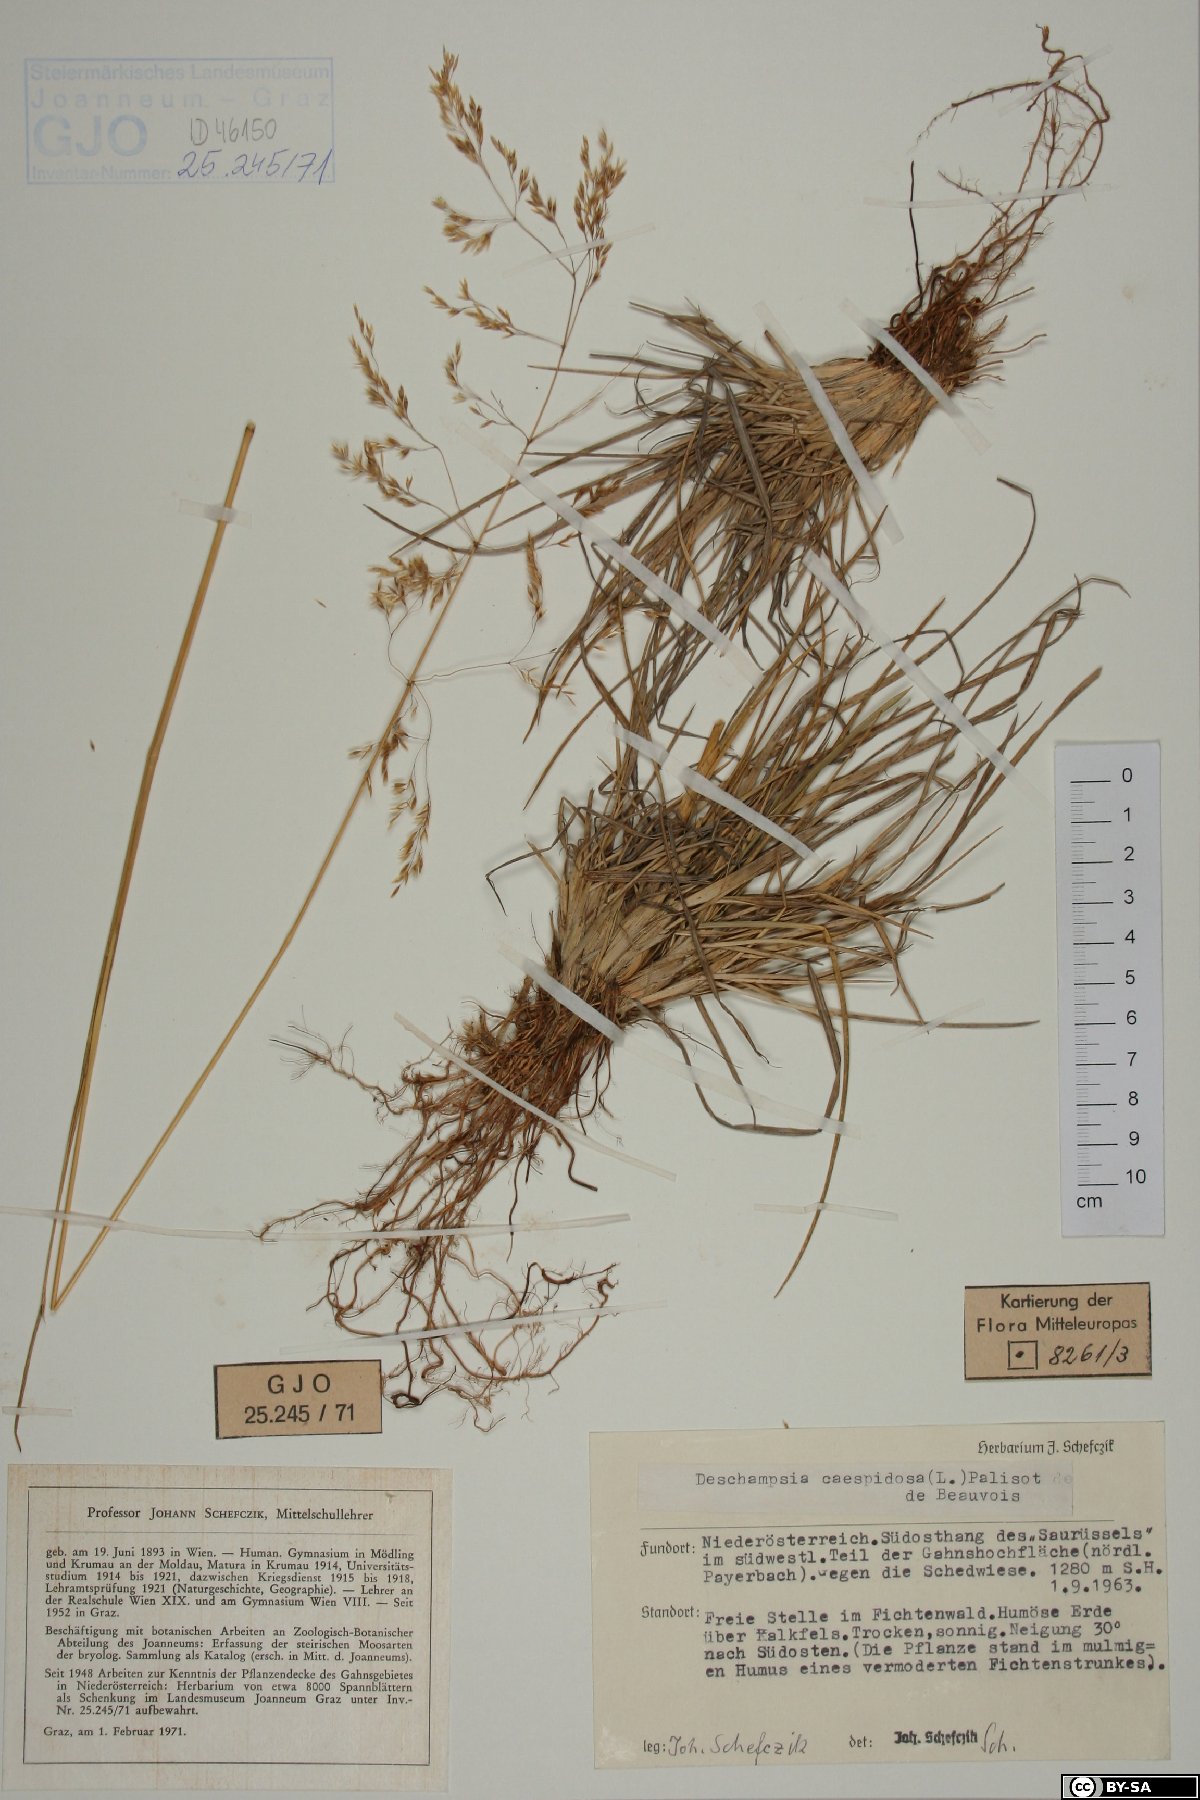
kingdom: Plantae
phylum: Tracheophyta
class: Liliopsida
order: Poales
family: Poaceae
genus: Deschampsia
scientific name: Deschampsia cespitosa
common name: Tufted hair-grass
